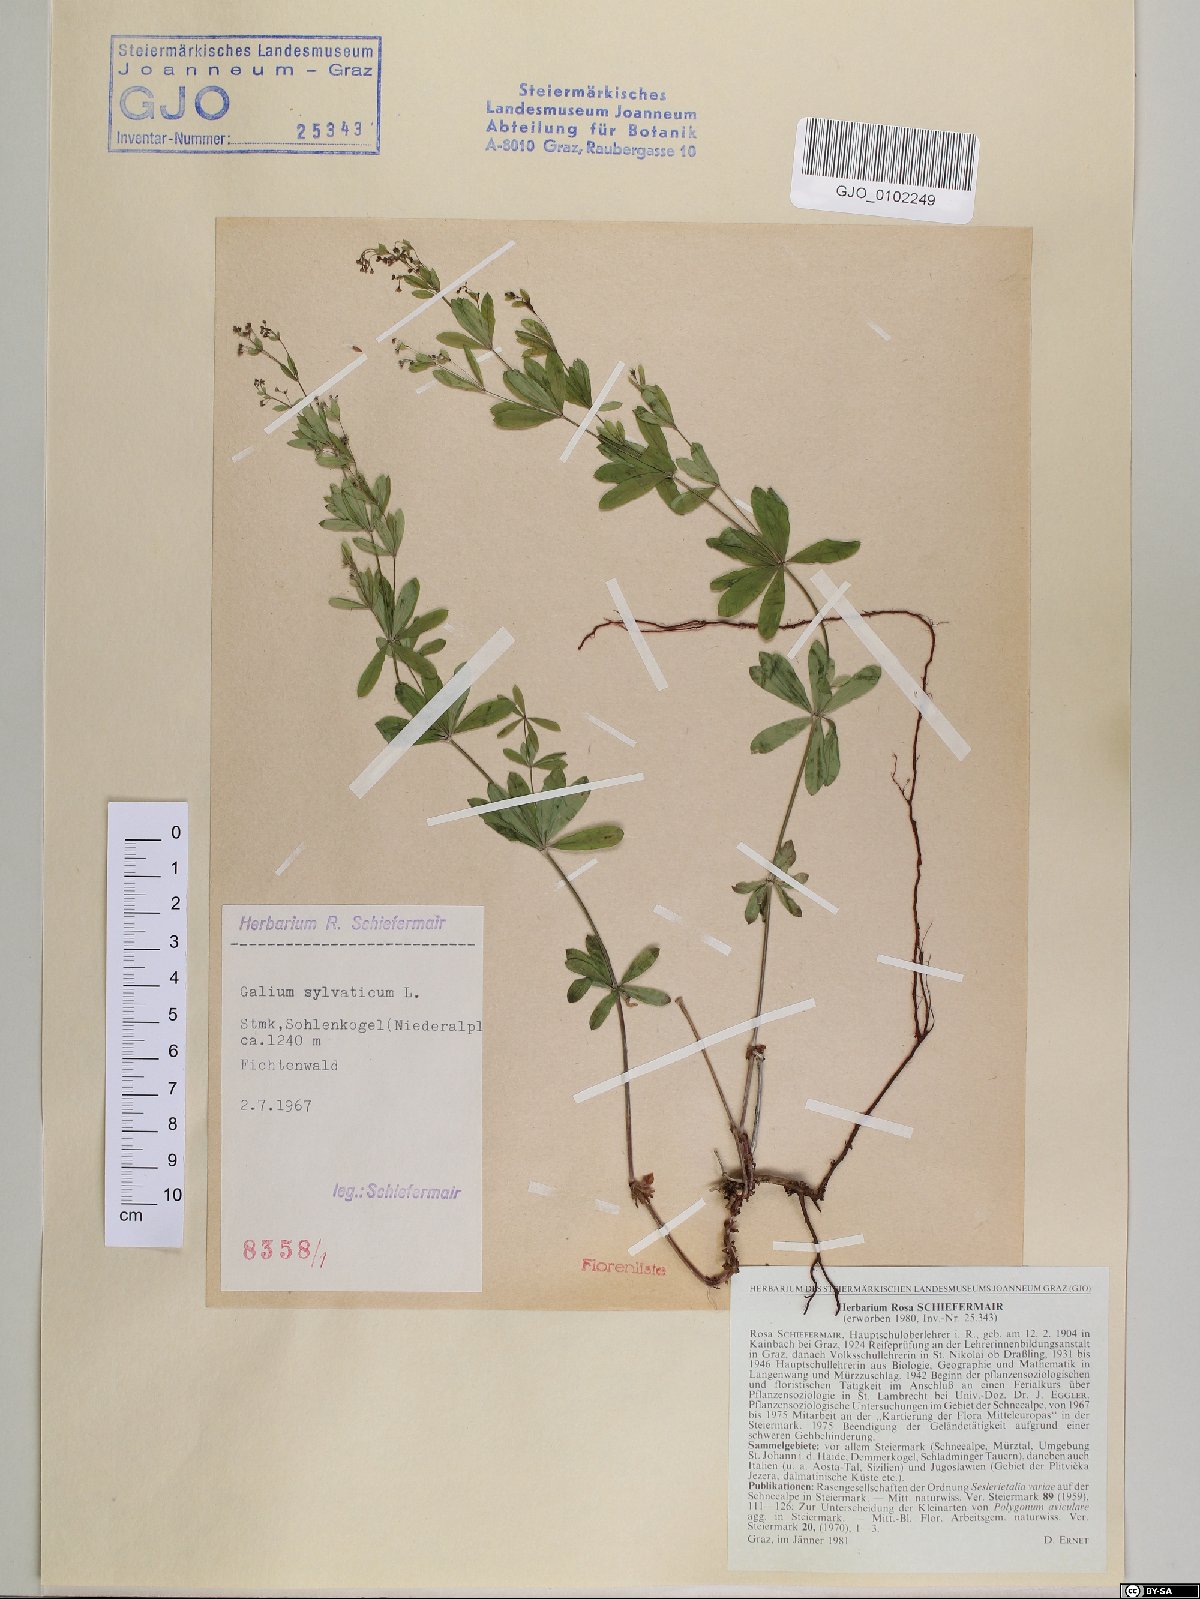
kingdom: Plantae
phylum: Tracheophyta
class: Magnoliopsida
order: Gentianales
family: Rubiaceae
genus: Galium
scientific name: Galium sylvaticum
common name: Wood bedstraw
